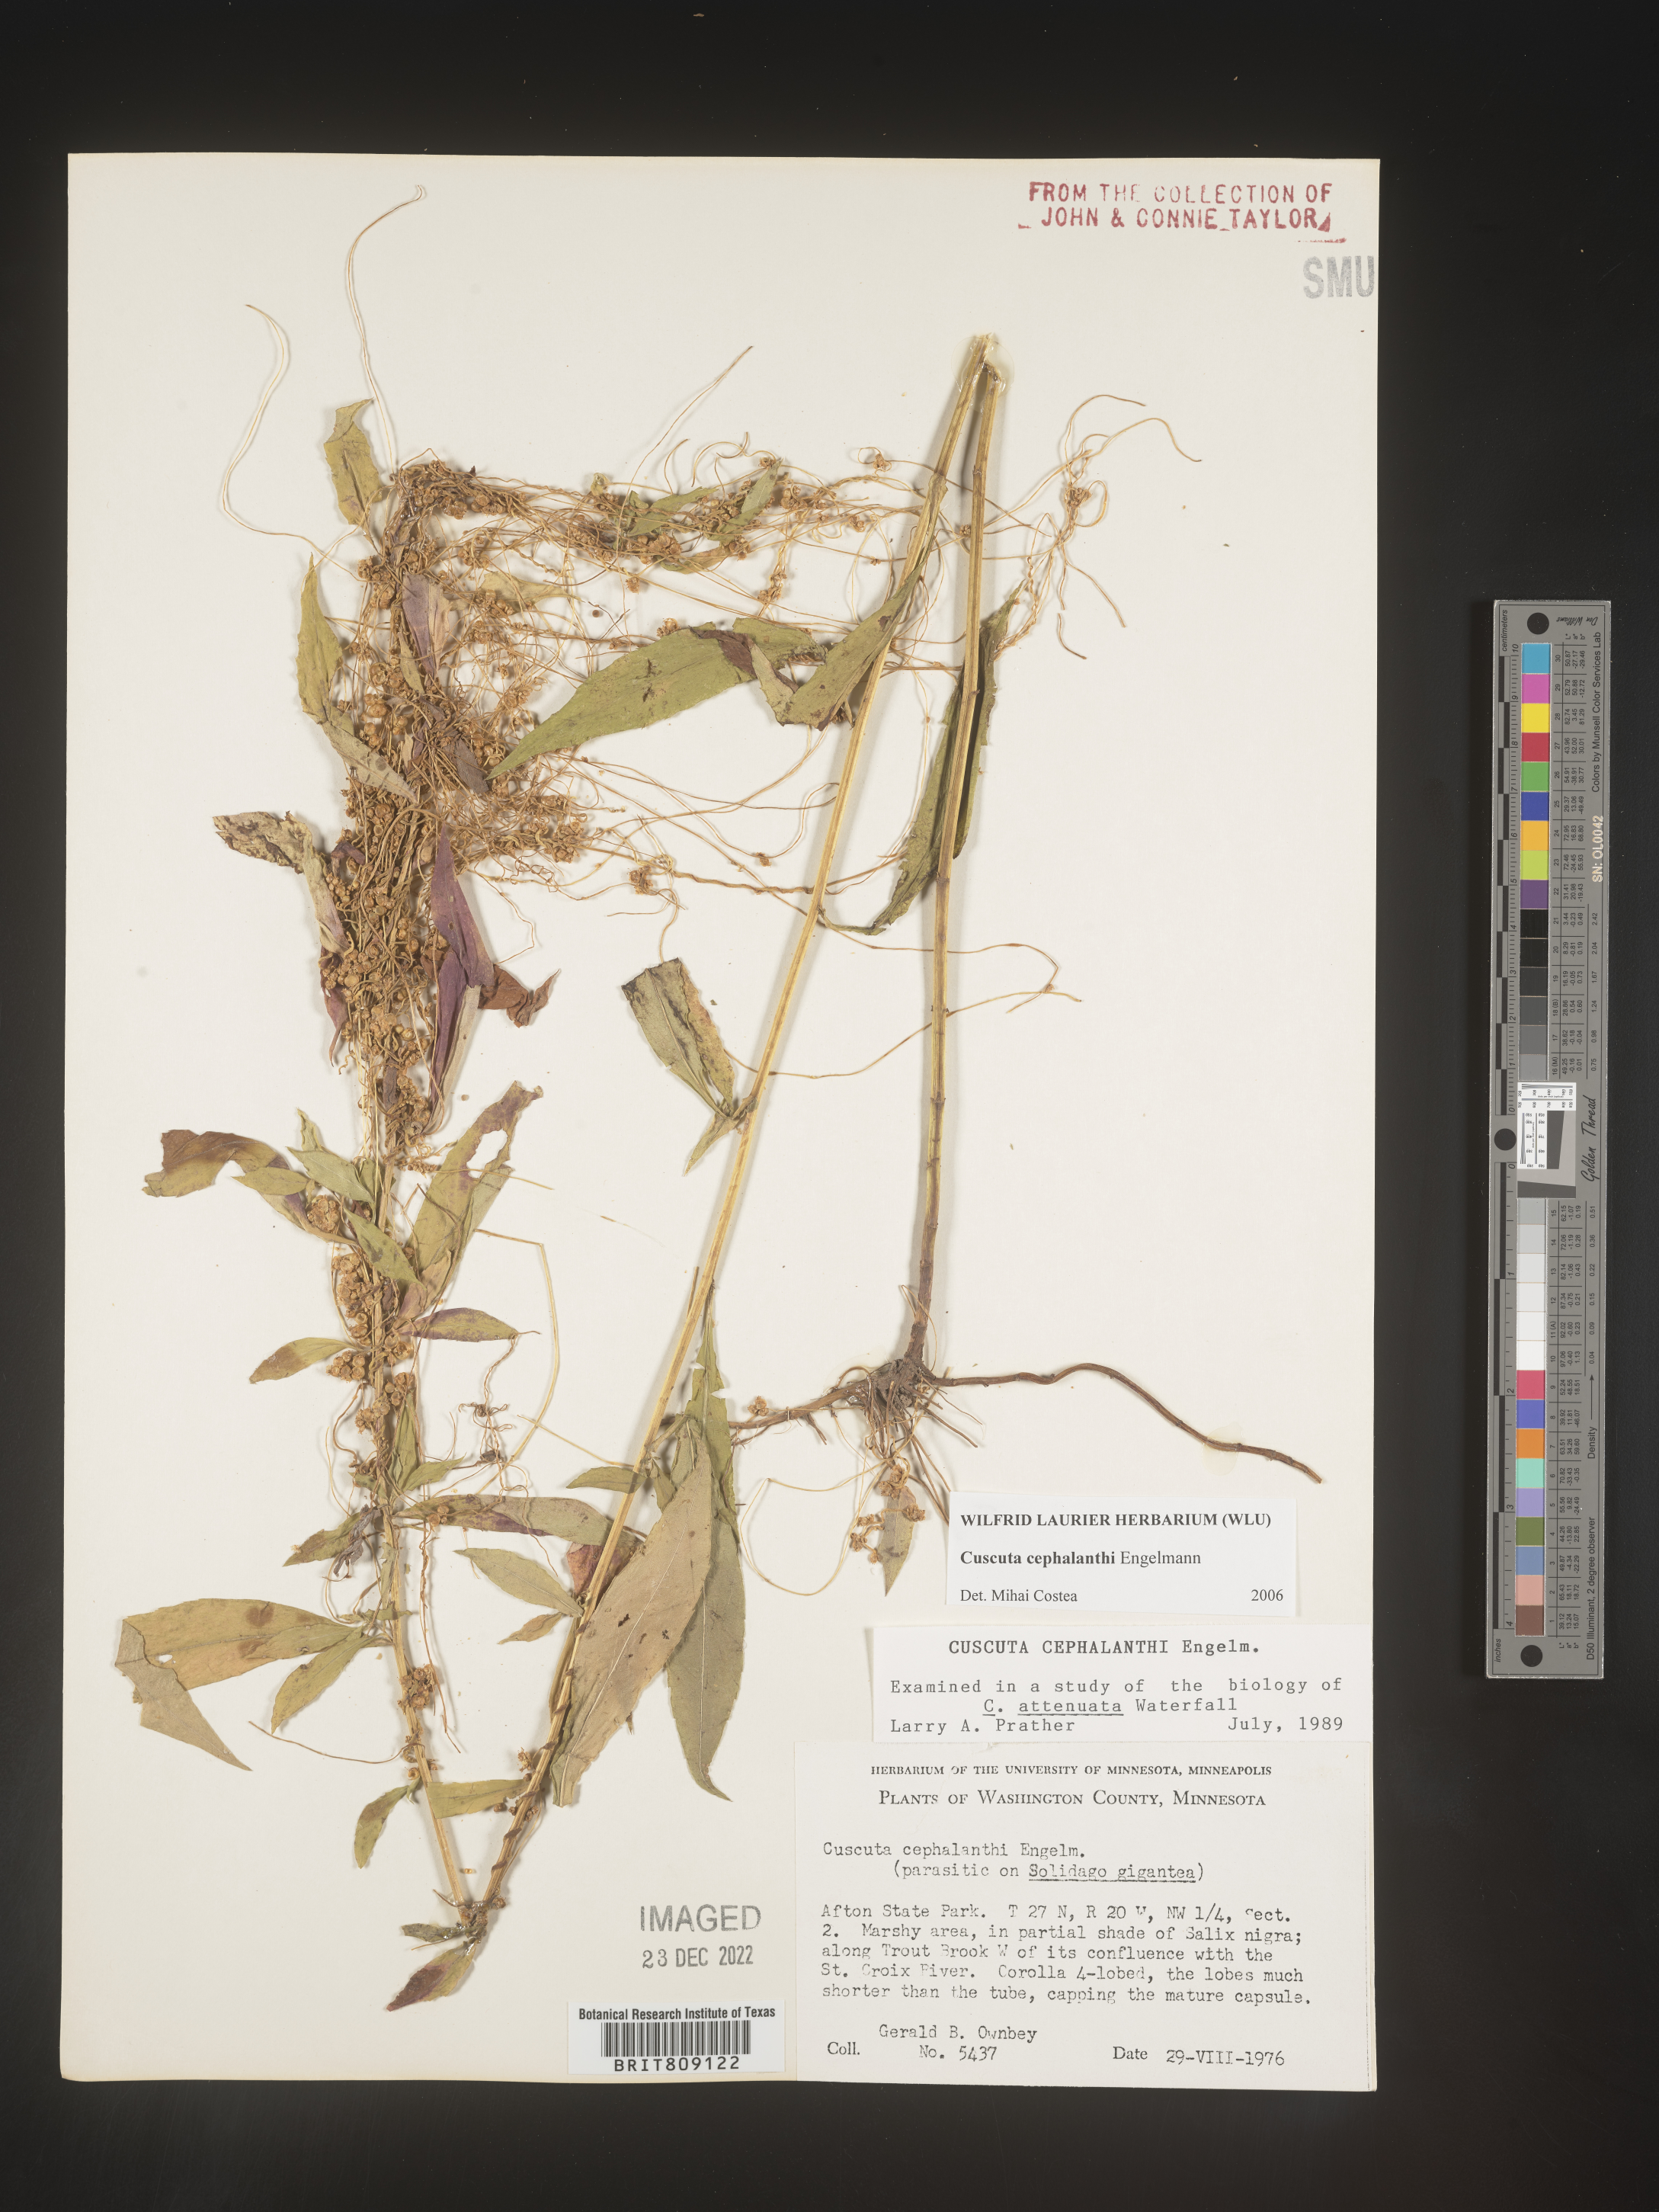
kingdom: Plantae
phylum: Tracheophyta
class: Magnoliopsida
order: Solanales
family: Convolvulaceae
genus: Cuscuta
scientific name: Cuscuta cephalanthi
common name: Button dodder
